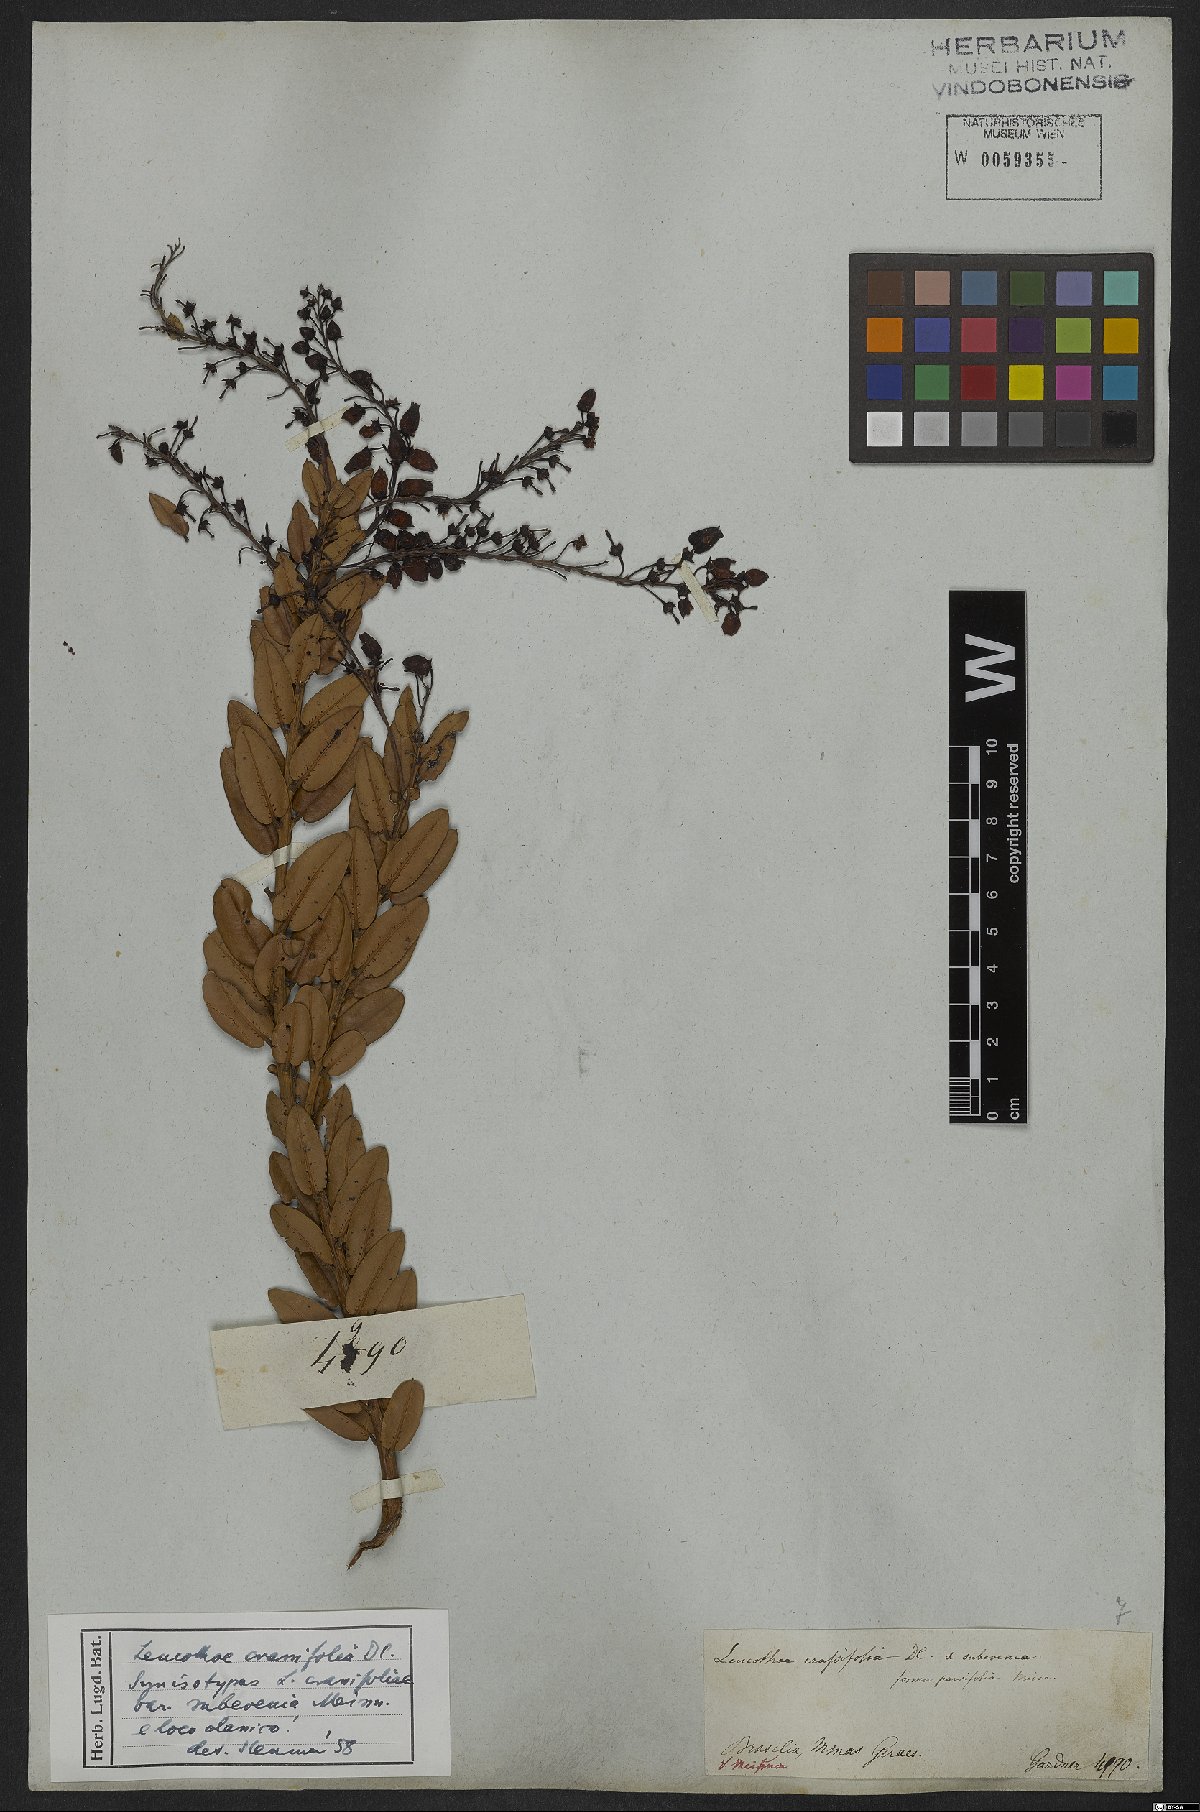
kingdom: Plantae
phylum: Tracheophyta
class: Magnoliopsida
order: Ericales
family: Ericaceae
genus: Agarista
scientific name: Agarista coriifolia
